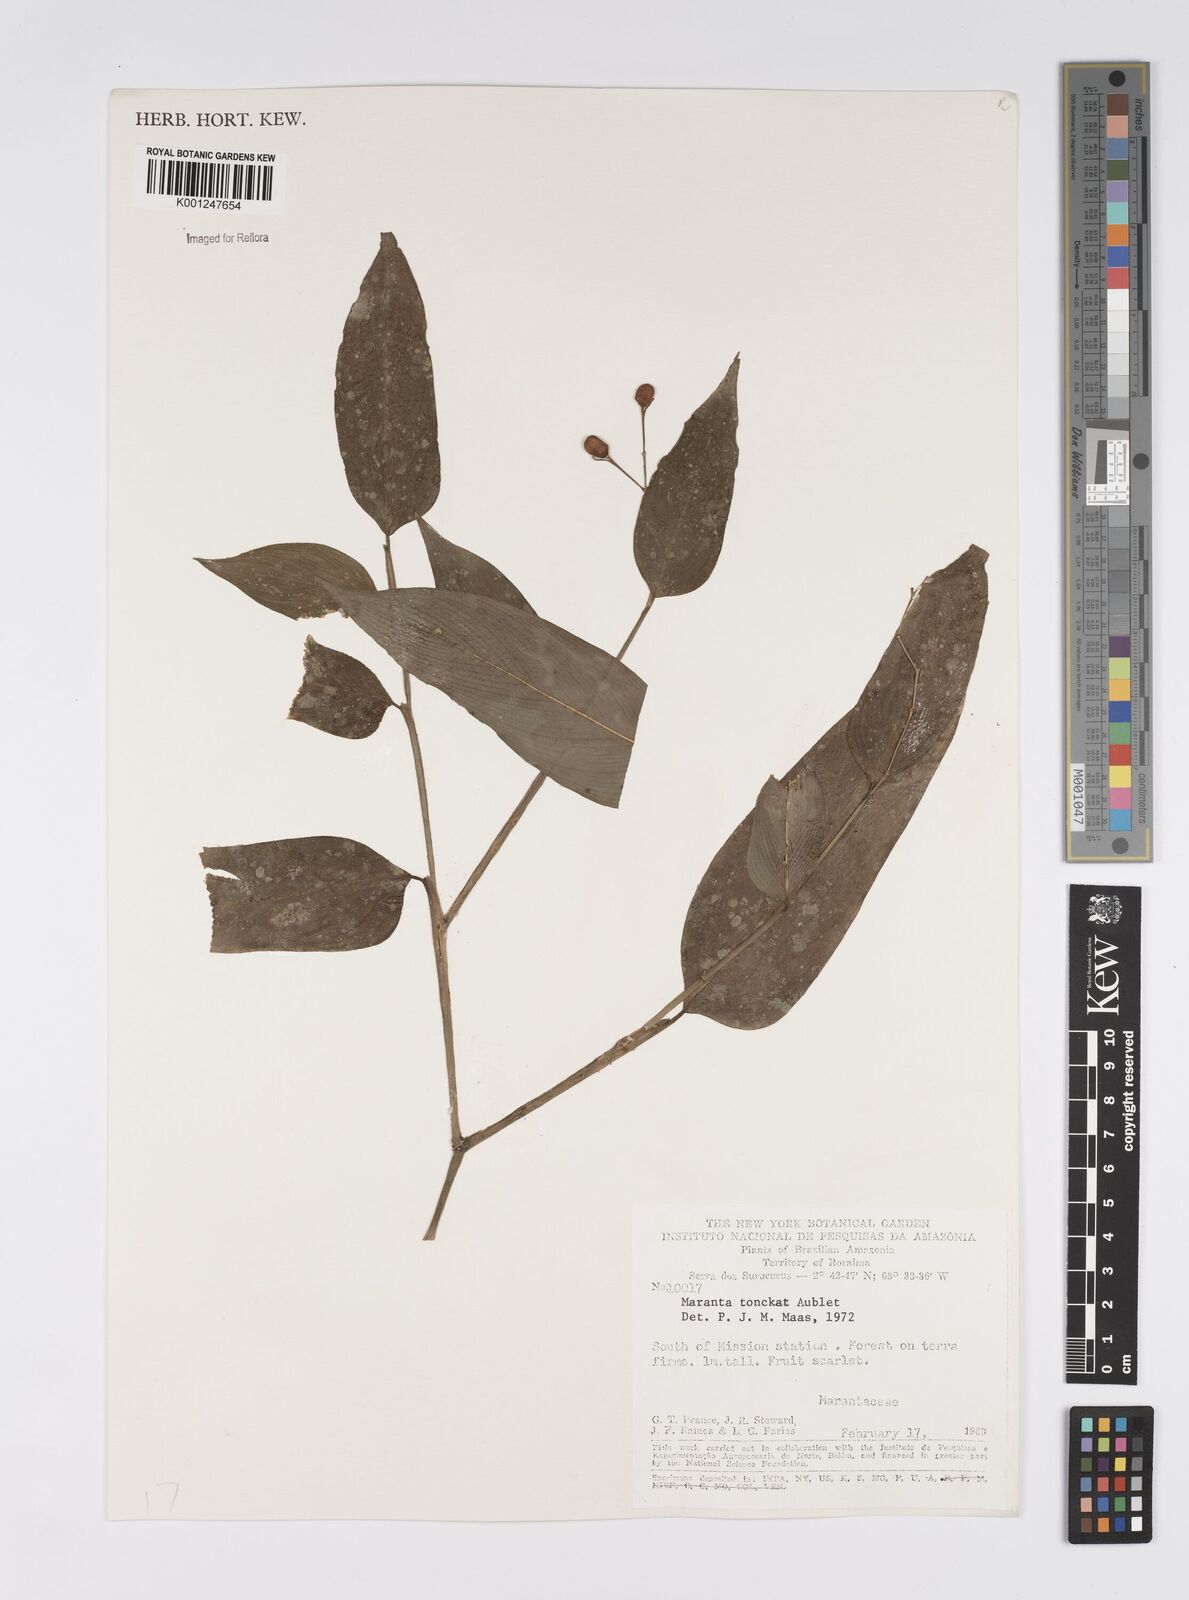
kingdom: Plantae
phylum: Tracheophyta
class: Liliopsida
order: Zingiberales
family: Marantaceae
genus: Stromanthe
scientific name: Stromanthe tonckat
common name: Stromanthe
